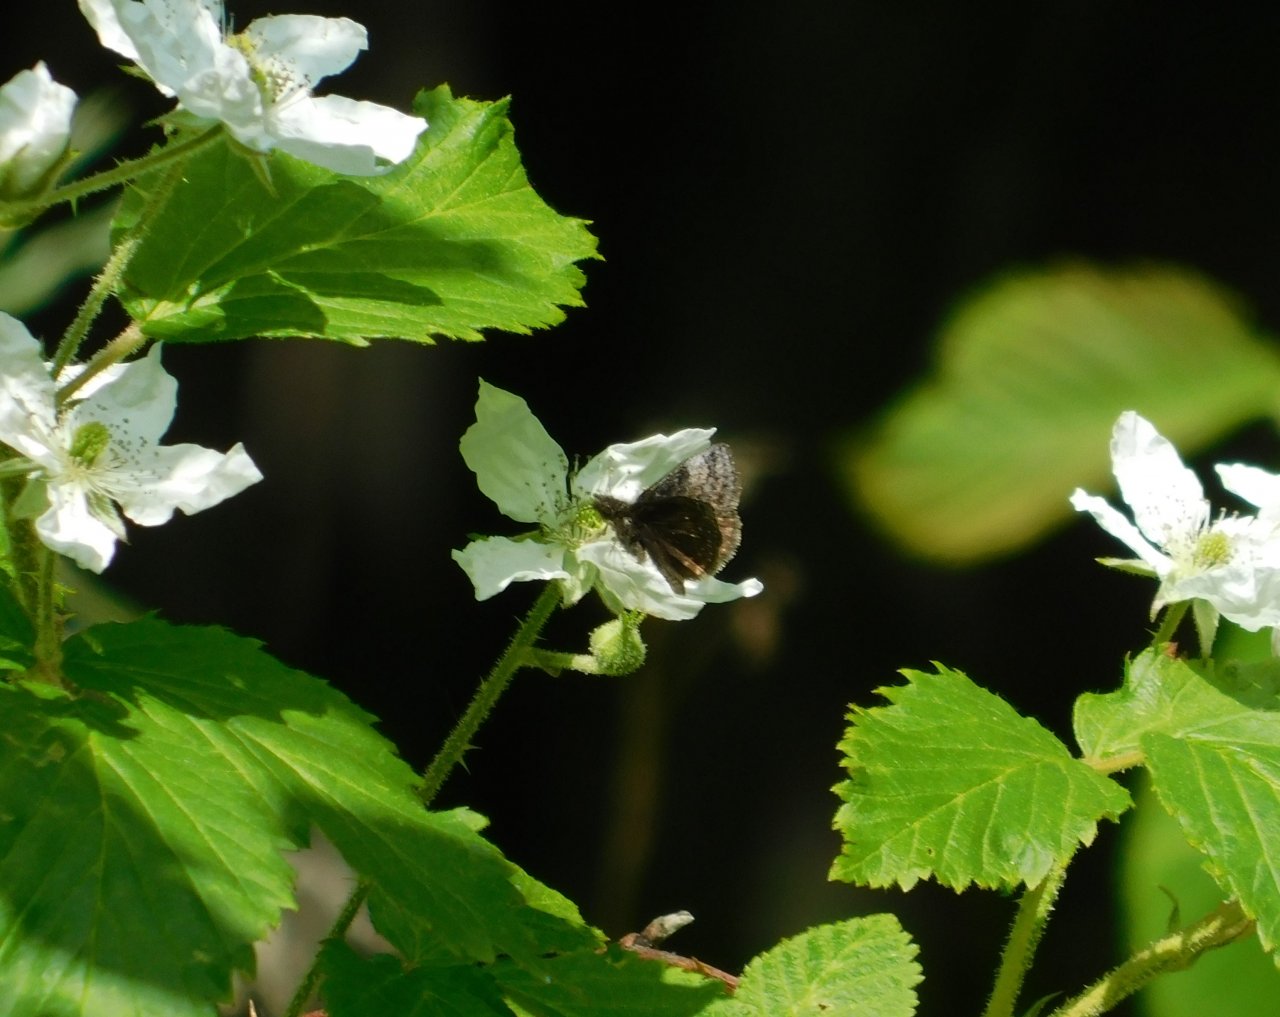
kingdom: Animalia
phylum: Arthropoda
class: Insecta
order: Lepidoptera
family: Hesperiidae
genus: Erynnis
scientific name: Erynnis icelus
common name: Dreamy Duskywing
